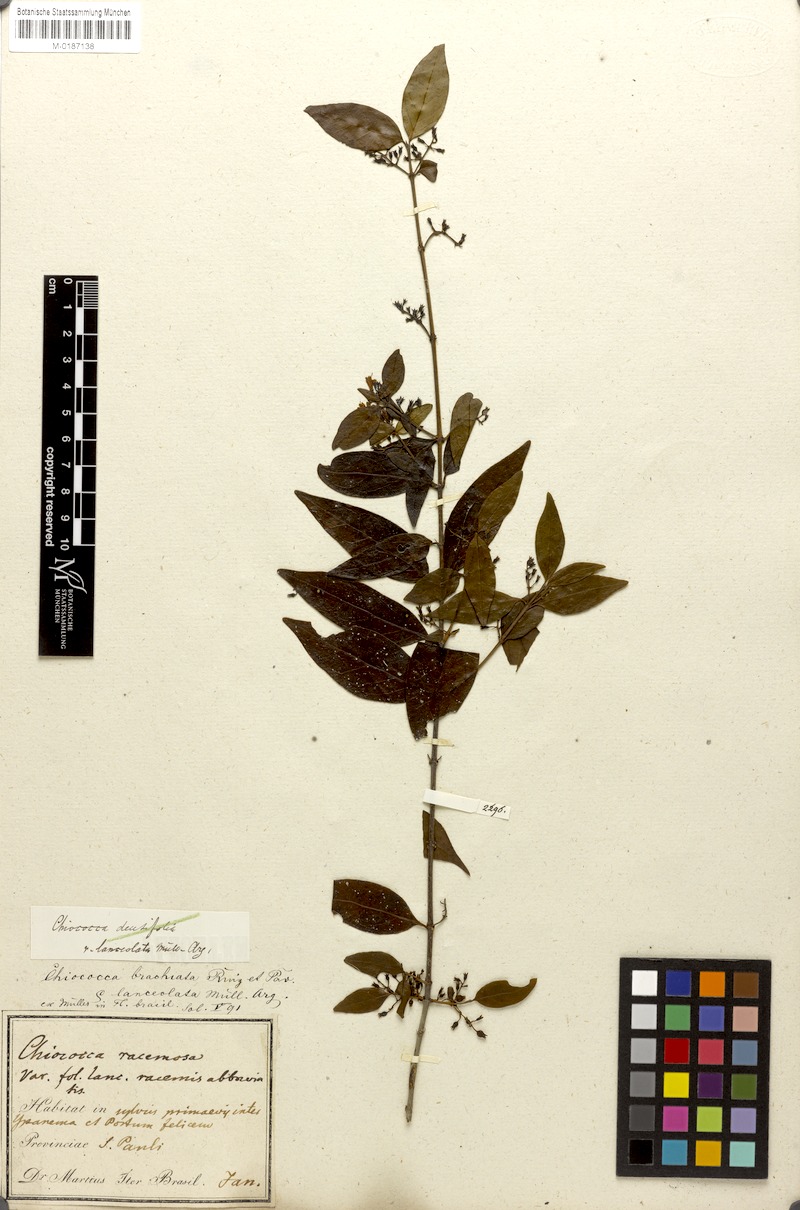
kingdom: Plantae
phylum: Tracheophyta
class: Magnoliopsida
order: Gentianales
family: Rubiaceae
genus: Chiococca
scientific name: Chiococca alba
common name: Snowberry
